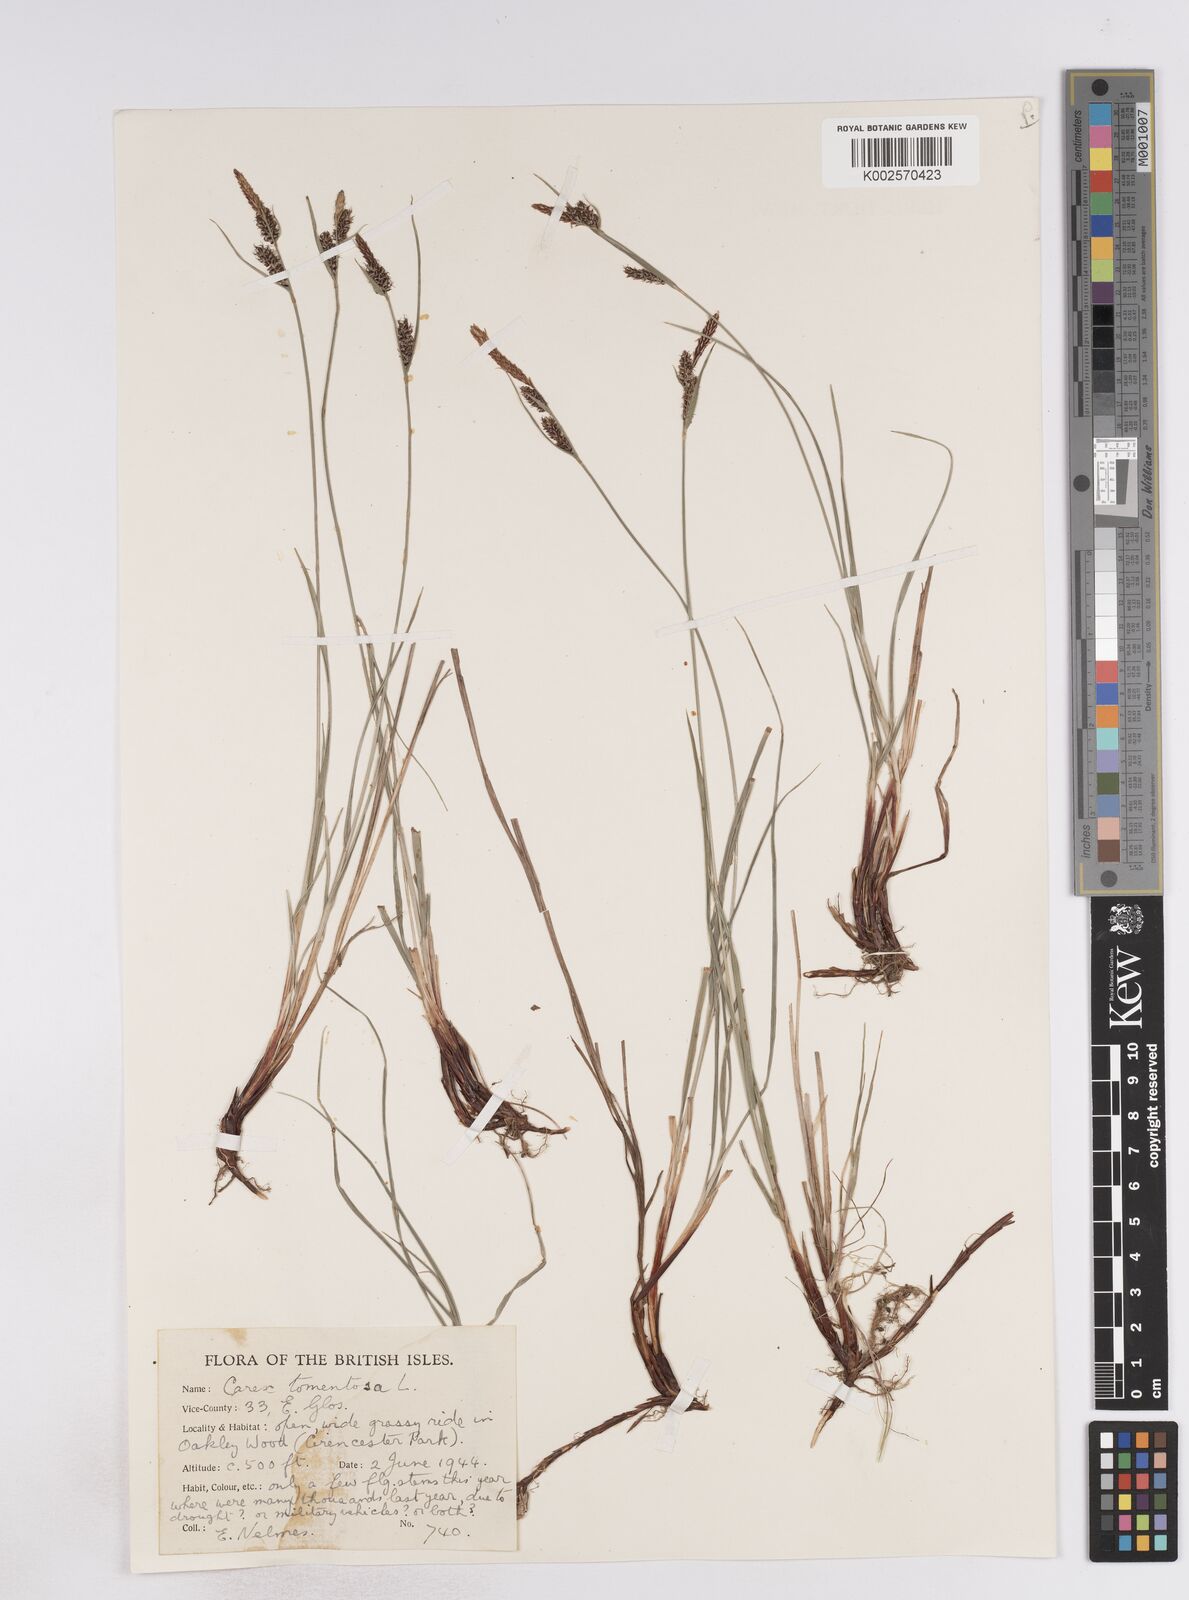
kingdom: Plantae
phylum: Tracheophyta
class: Liliopsida
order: Poales
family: Cyperaceae
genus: Carex
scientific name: Carex montana
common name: Soft-leaved sedge
